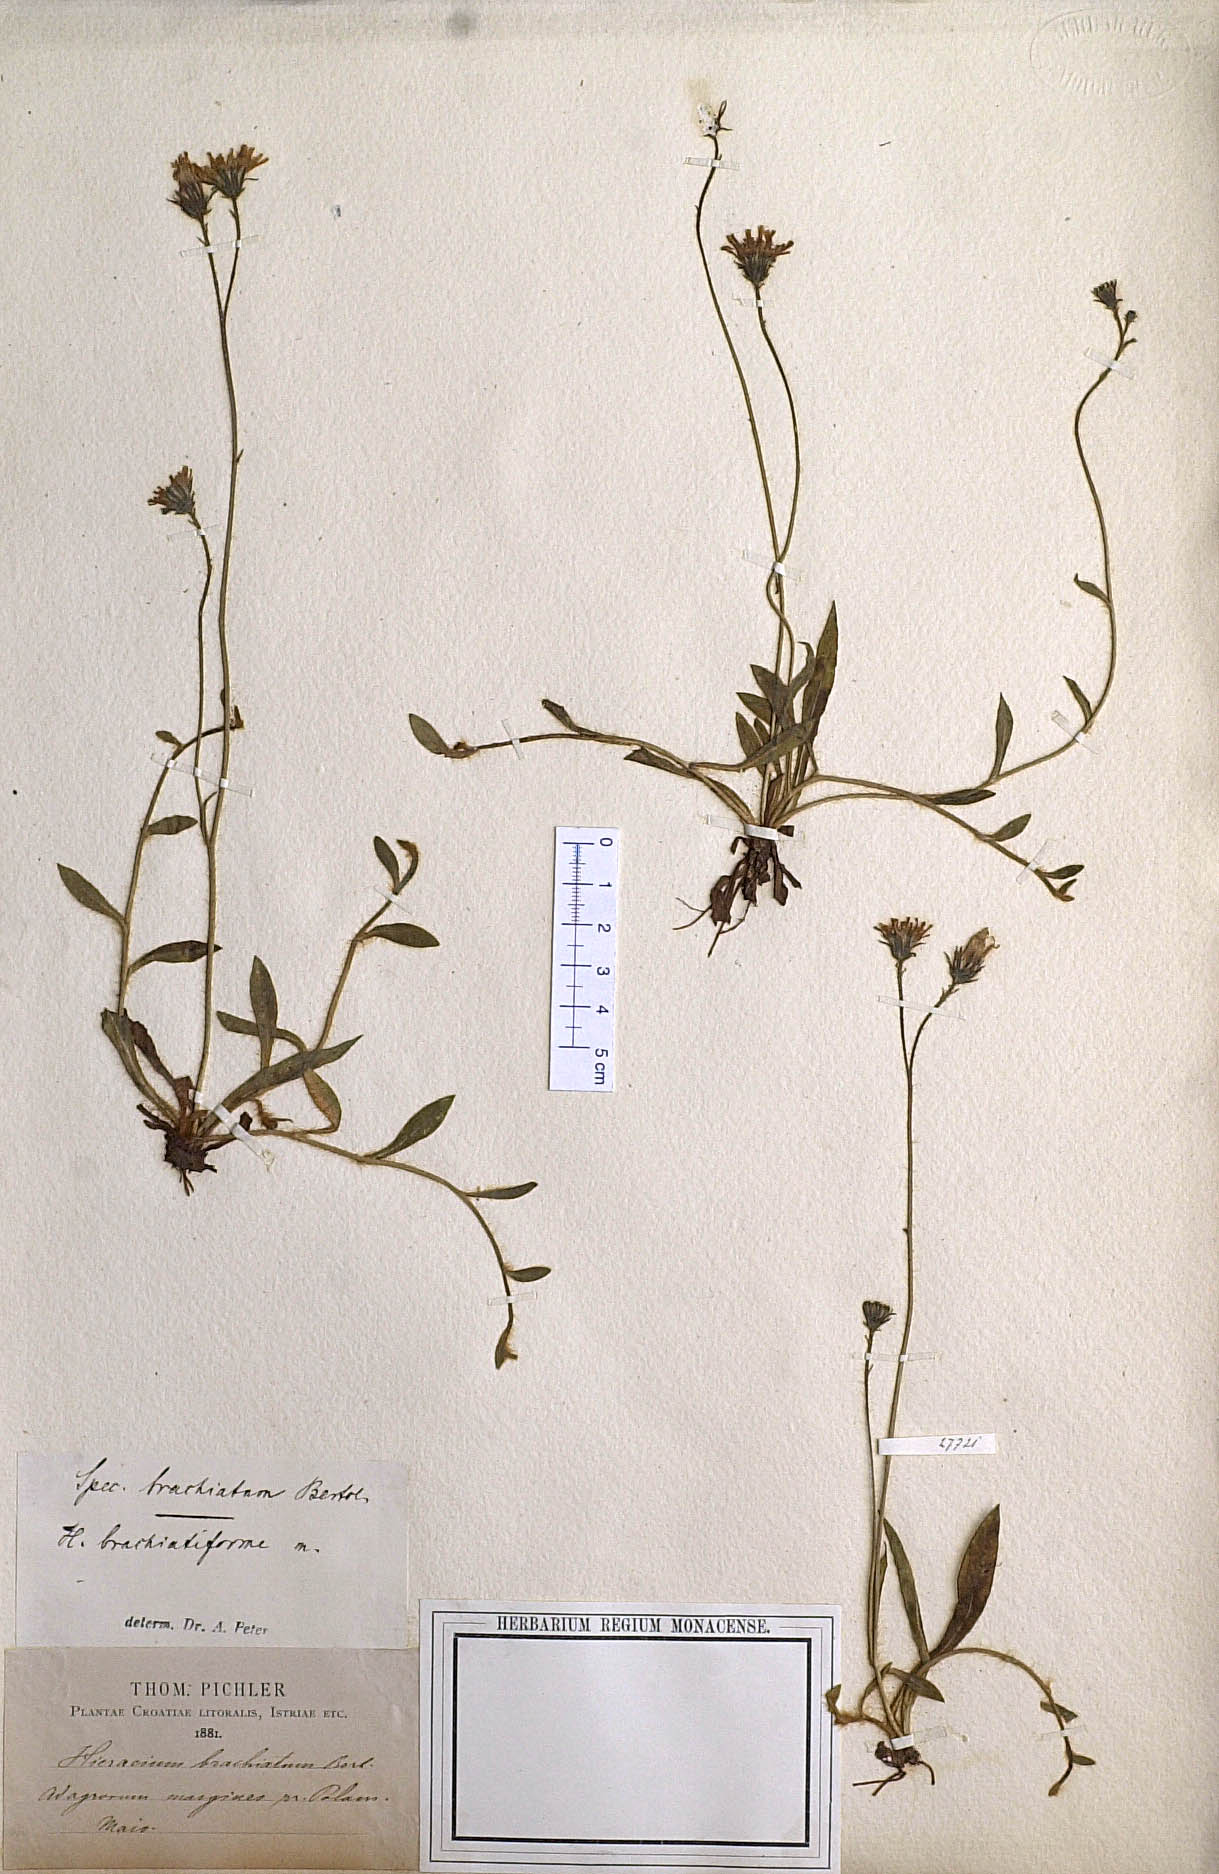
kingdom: Plantae
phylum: Tracheophyta
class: Magnoliopsida
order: Asterales
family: Asteraceae
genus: Pilosella
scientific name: Pilosella acutifolia
